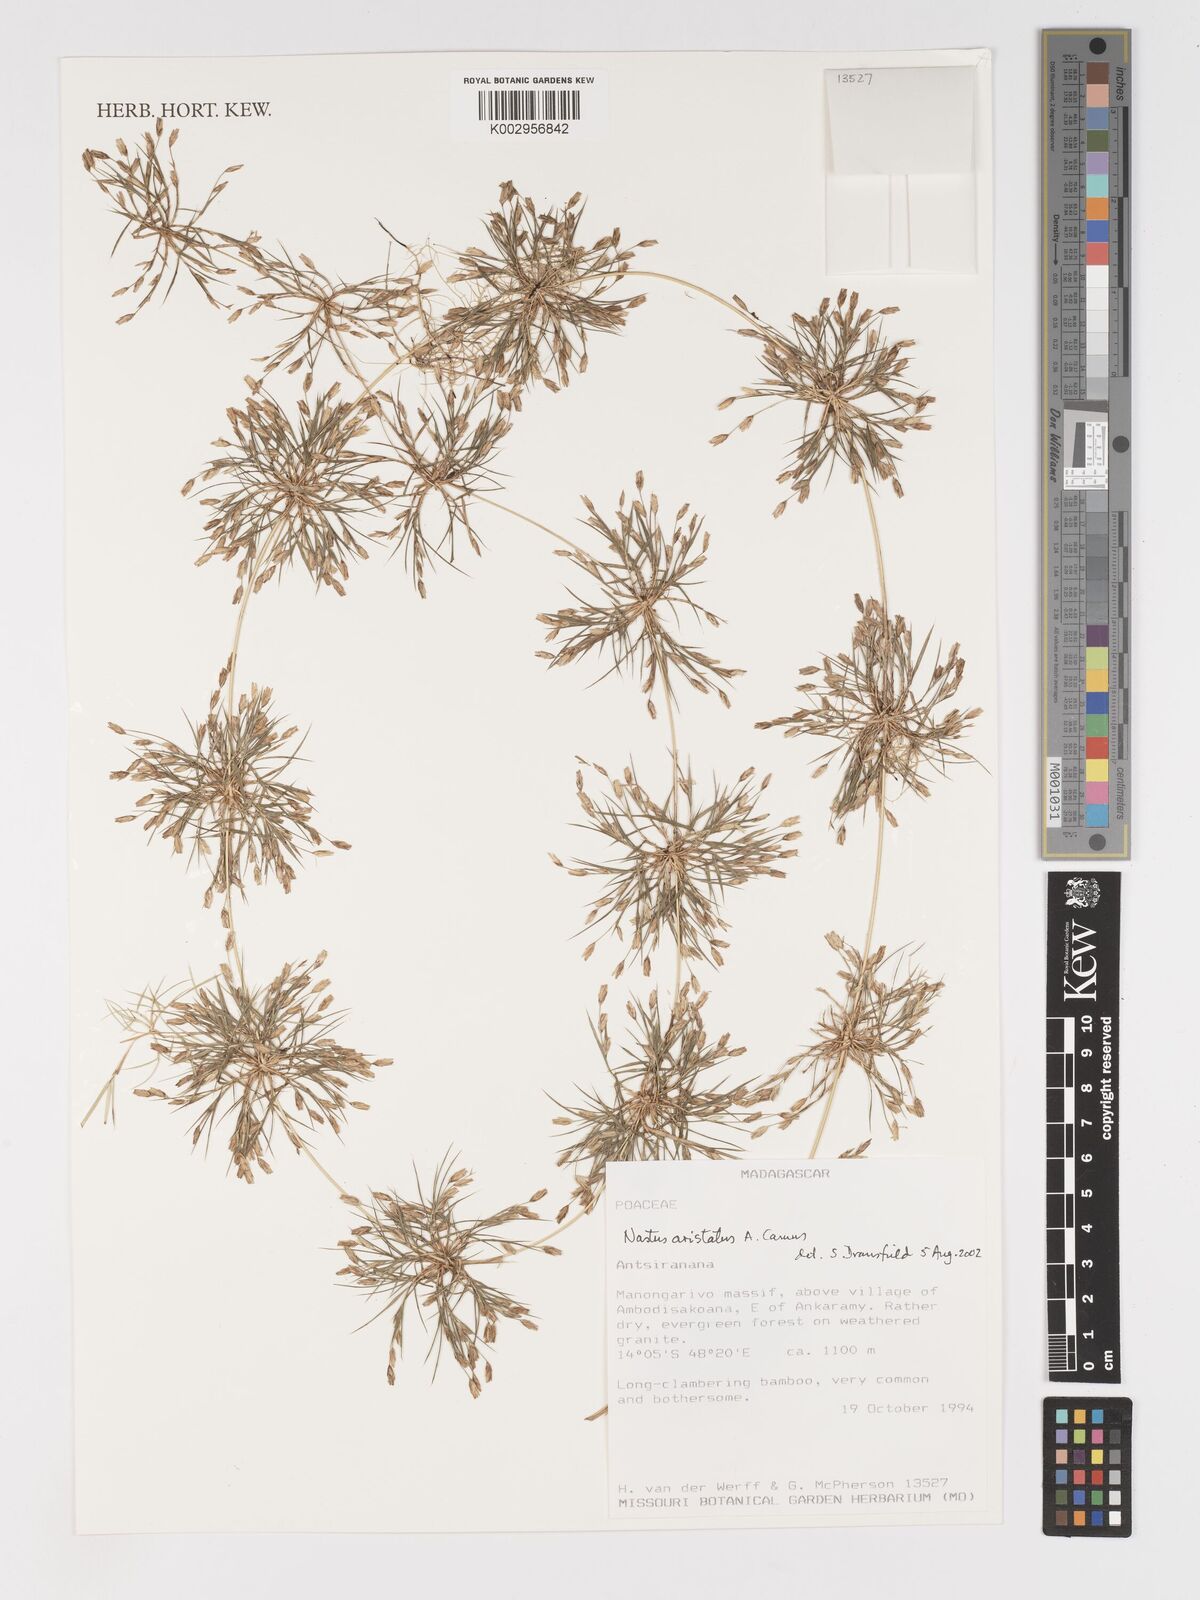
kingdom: Plantae
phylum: Tracheophyta
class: Liliopsida
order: Poales
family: Poaceae
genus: Nastus
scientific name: Nastus aristatus
